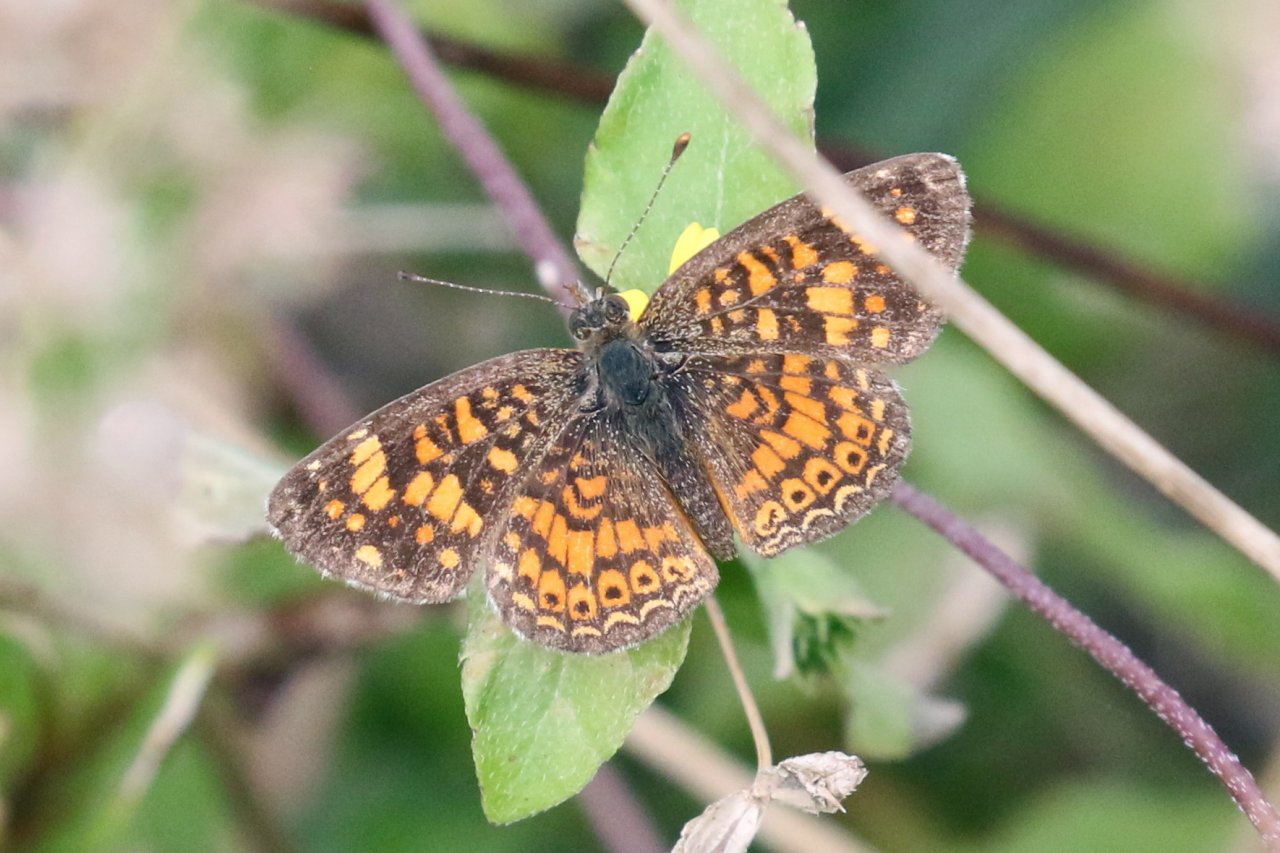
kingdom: Animalia
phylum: Arthropoda
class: Insecta
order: Lepidoptera
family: Nymphalidae
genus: Phyciodes
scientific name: Phyciodes vesta
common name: Vesta Crescent
